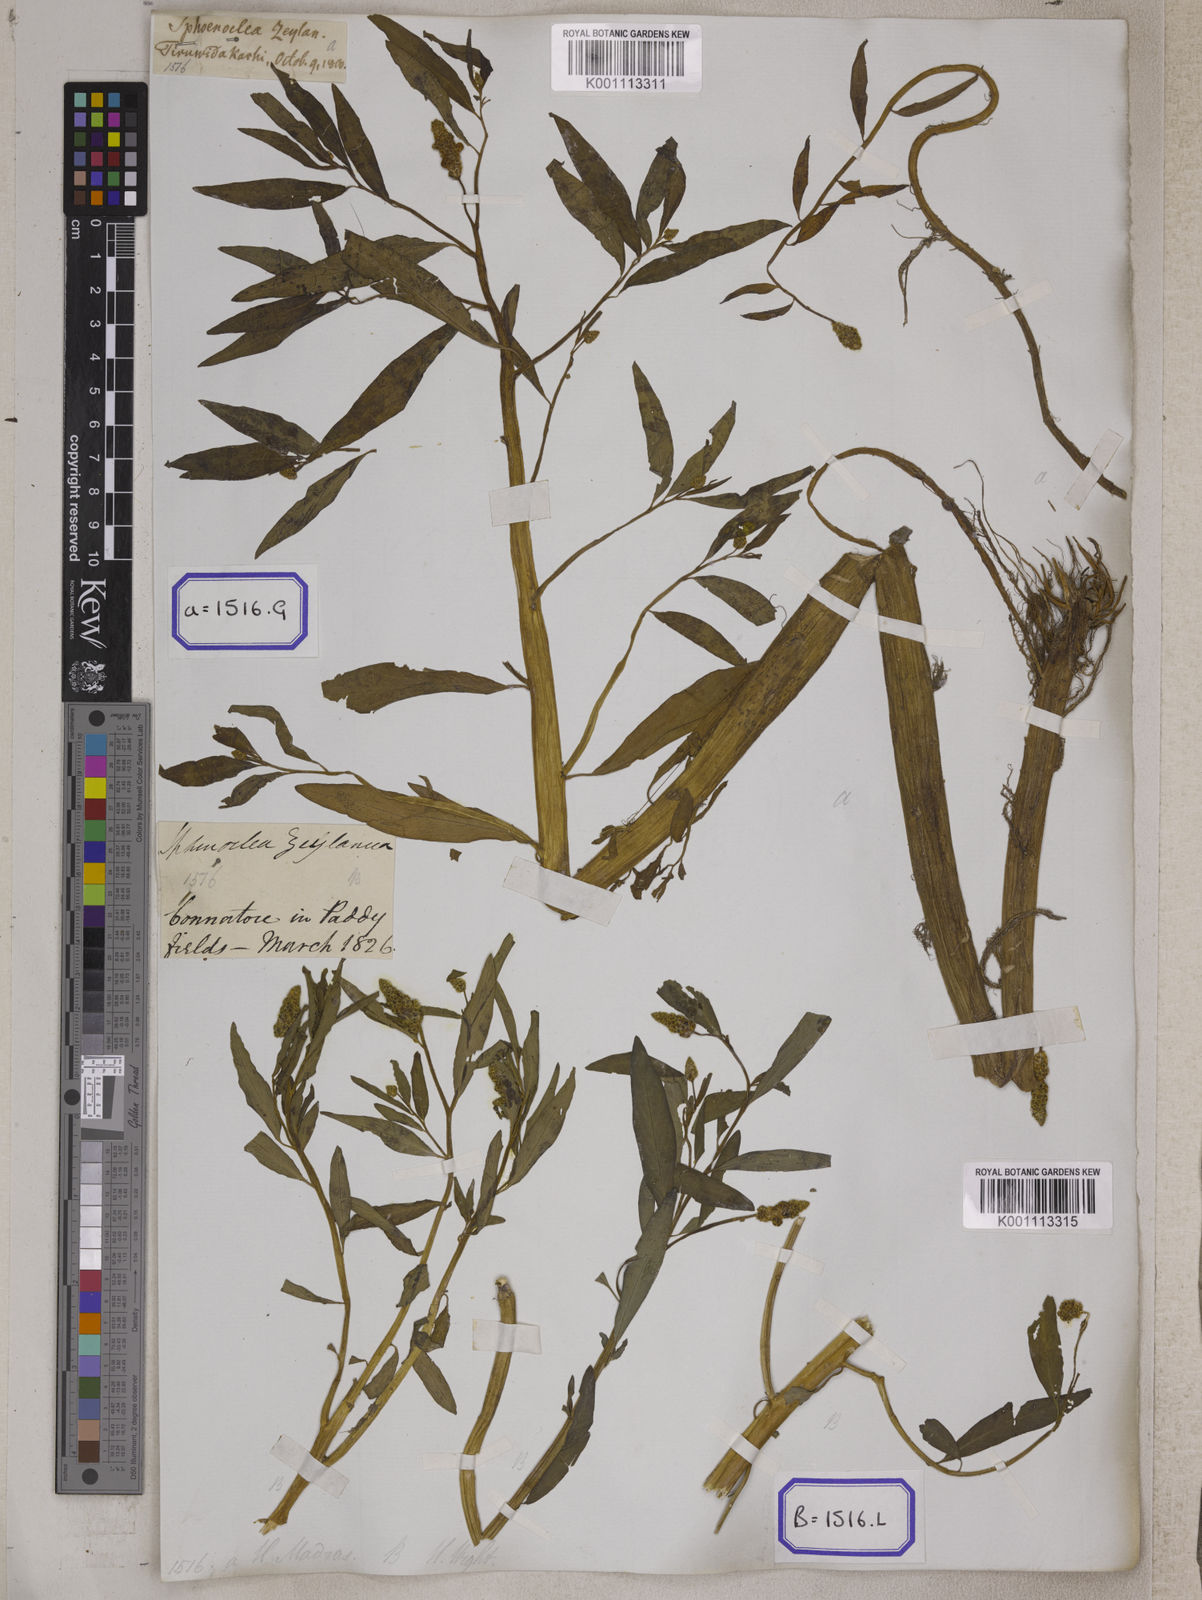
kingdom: Plantae
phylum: Tracheophyta
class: Magnoliopsida
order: Solanales
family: Sphenocleaceae
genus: Sphenoclea
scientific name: Sphenoclea
